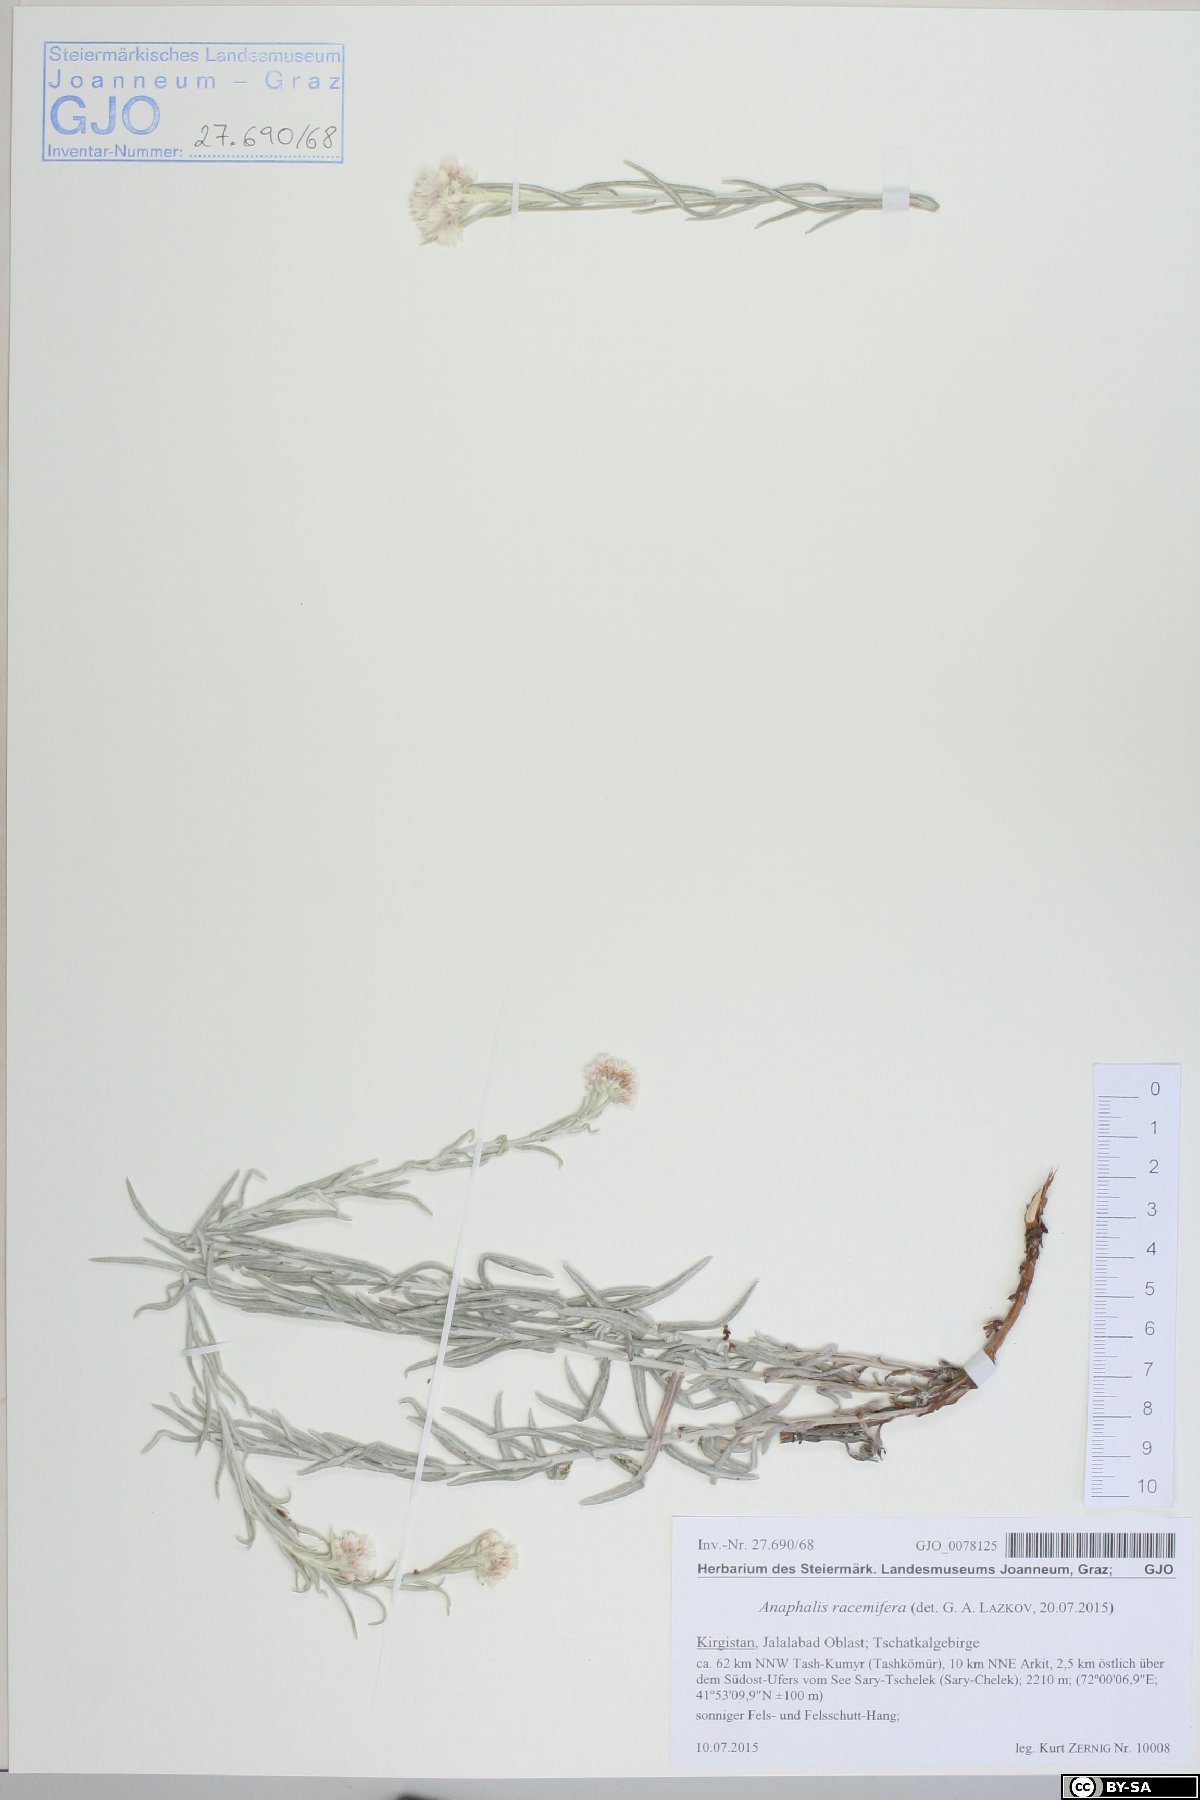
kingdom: Plantae
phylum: Tracheophyta
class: Magnoliopsida
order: Asterales
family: Asteraceae
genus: Anaphalis
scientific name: Anaphalis racemifera
